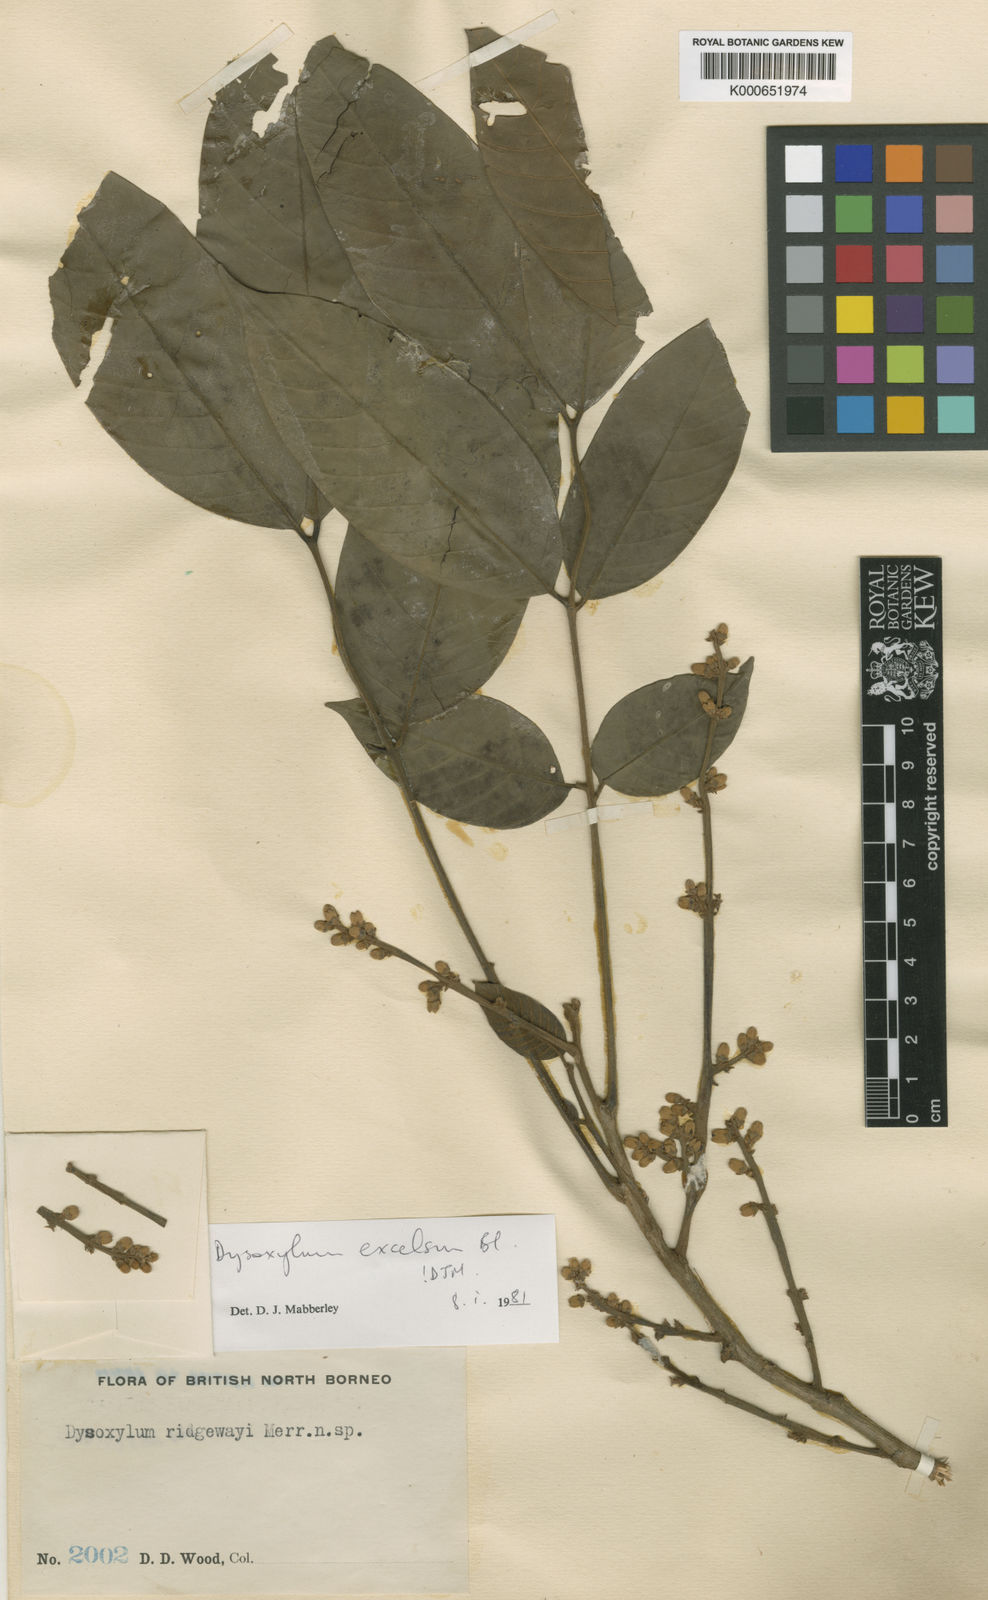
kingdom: Plantae
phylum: Tracheophyta
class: Magnoliopsida
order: Sapindales
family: Meliaceae
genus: Dysoxylum
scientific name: Dysoxylum excelsum
